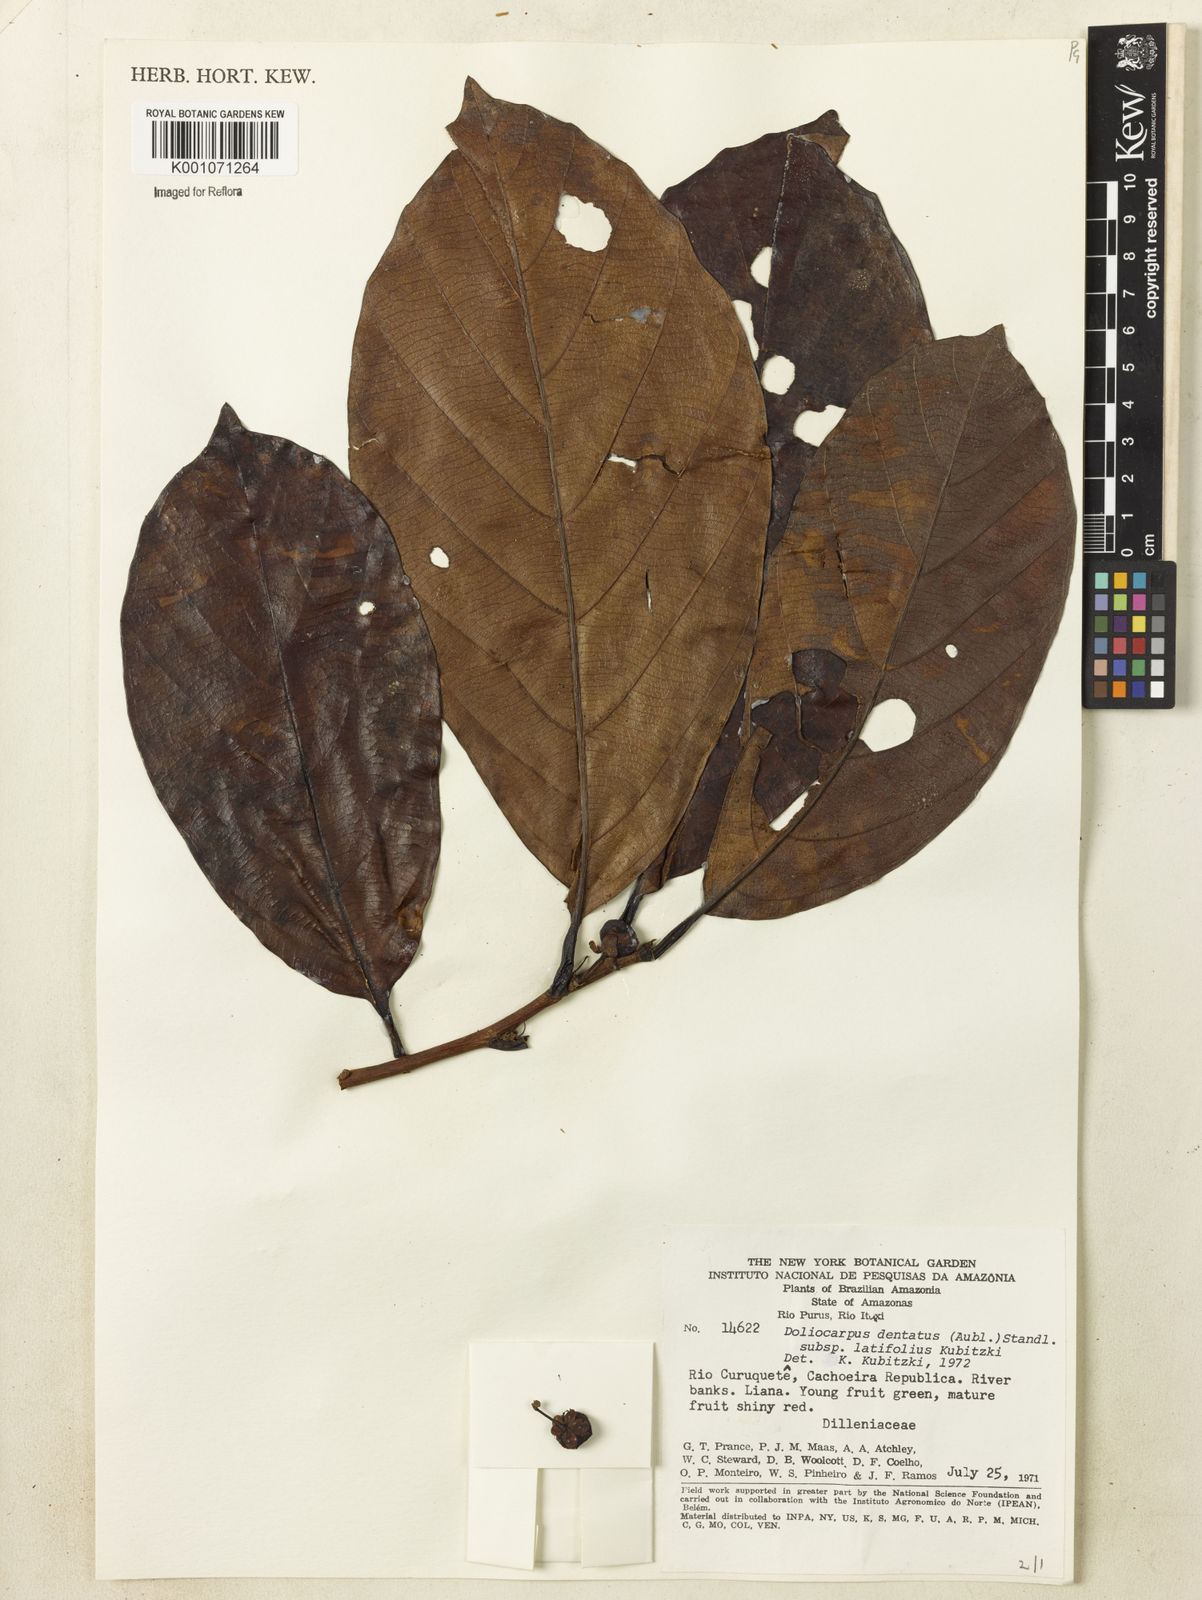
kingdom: Plantae
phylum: Tracheophyta
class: Magnoliopsida
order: Dilleniales
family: Dilleniaceae
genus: Doliocarpus
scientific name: Doliocarpus dentatus
